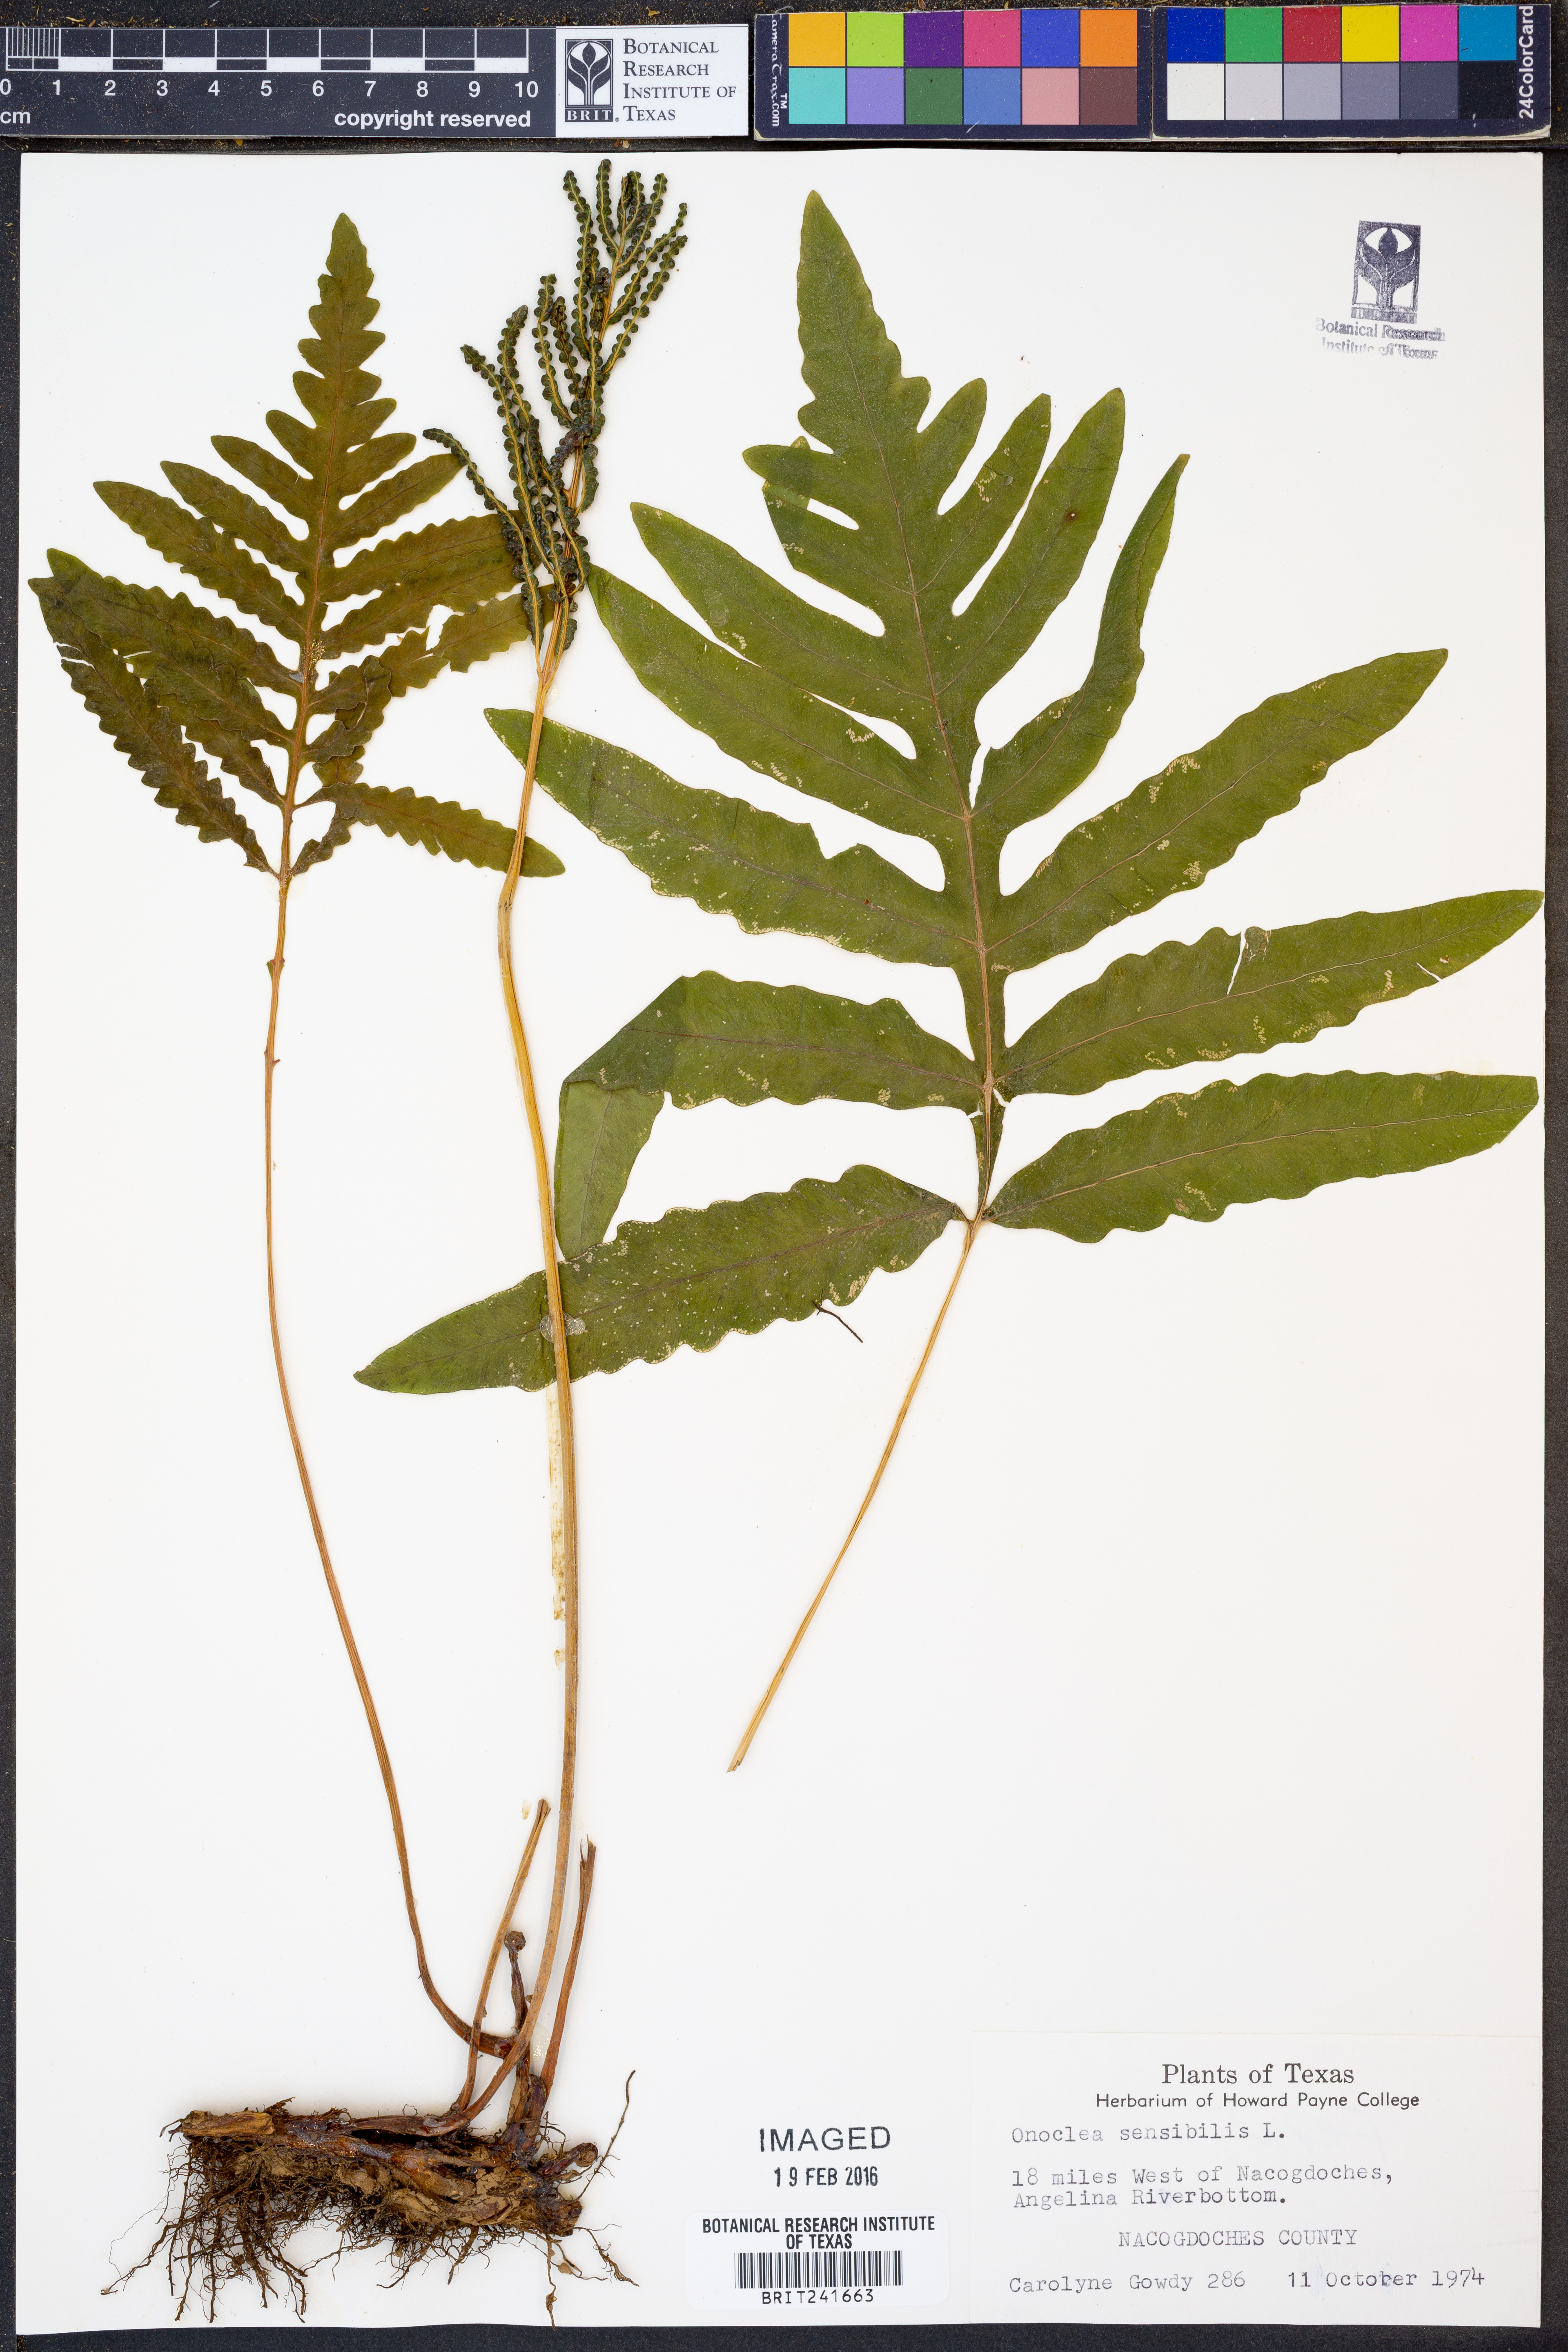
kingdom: Plantae
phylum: Tracheophyta
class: Polypodiopsida
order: Polypodiales
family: Onocleaceae
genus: Onoclea
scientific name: Onoclea sensibilis
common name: Sensitive fern
